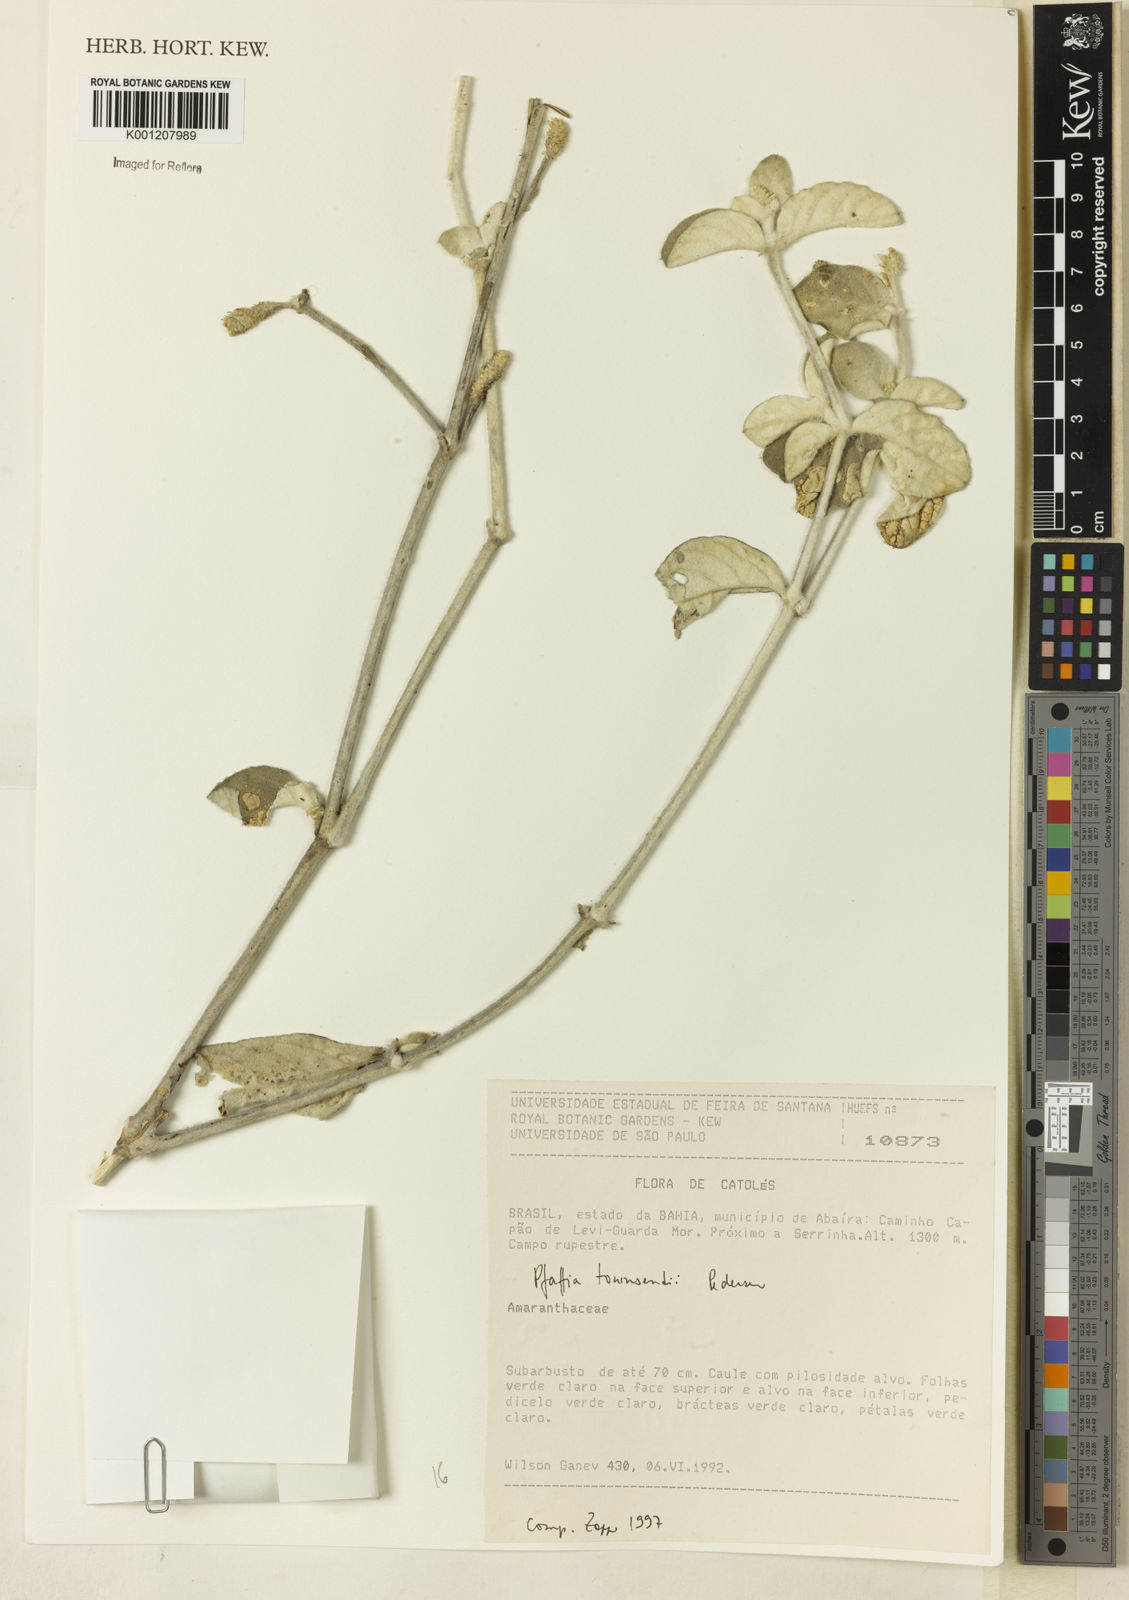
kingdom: Plantae
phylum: Tracheophyta
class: Magnoliopsida
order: Caryophyllales
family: Amaranthaceae
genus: Pfaffia
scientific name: Pfaffia townsendii
